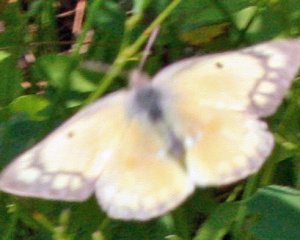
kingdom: Animalia
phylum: Arthropoda
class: Insecta
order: Lepidoptera
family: Pieridae
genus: Colias
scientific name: Colias eurytheme
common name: Orange Sulphur
